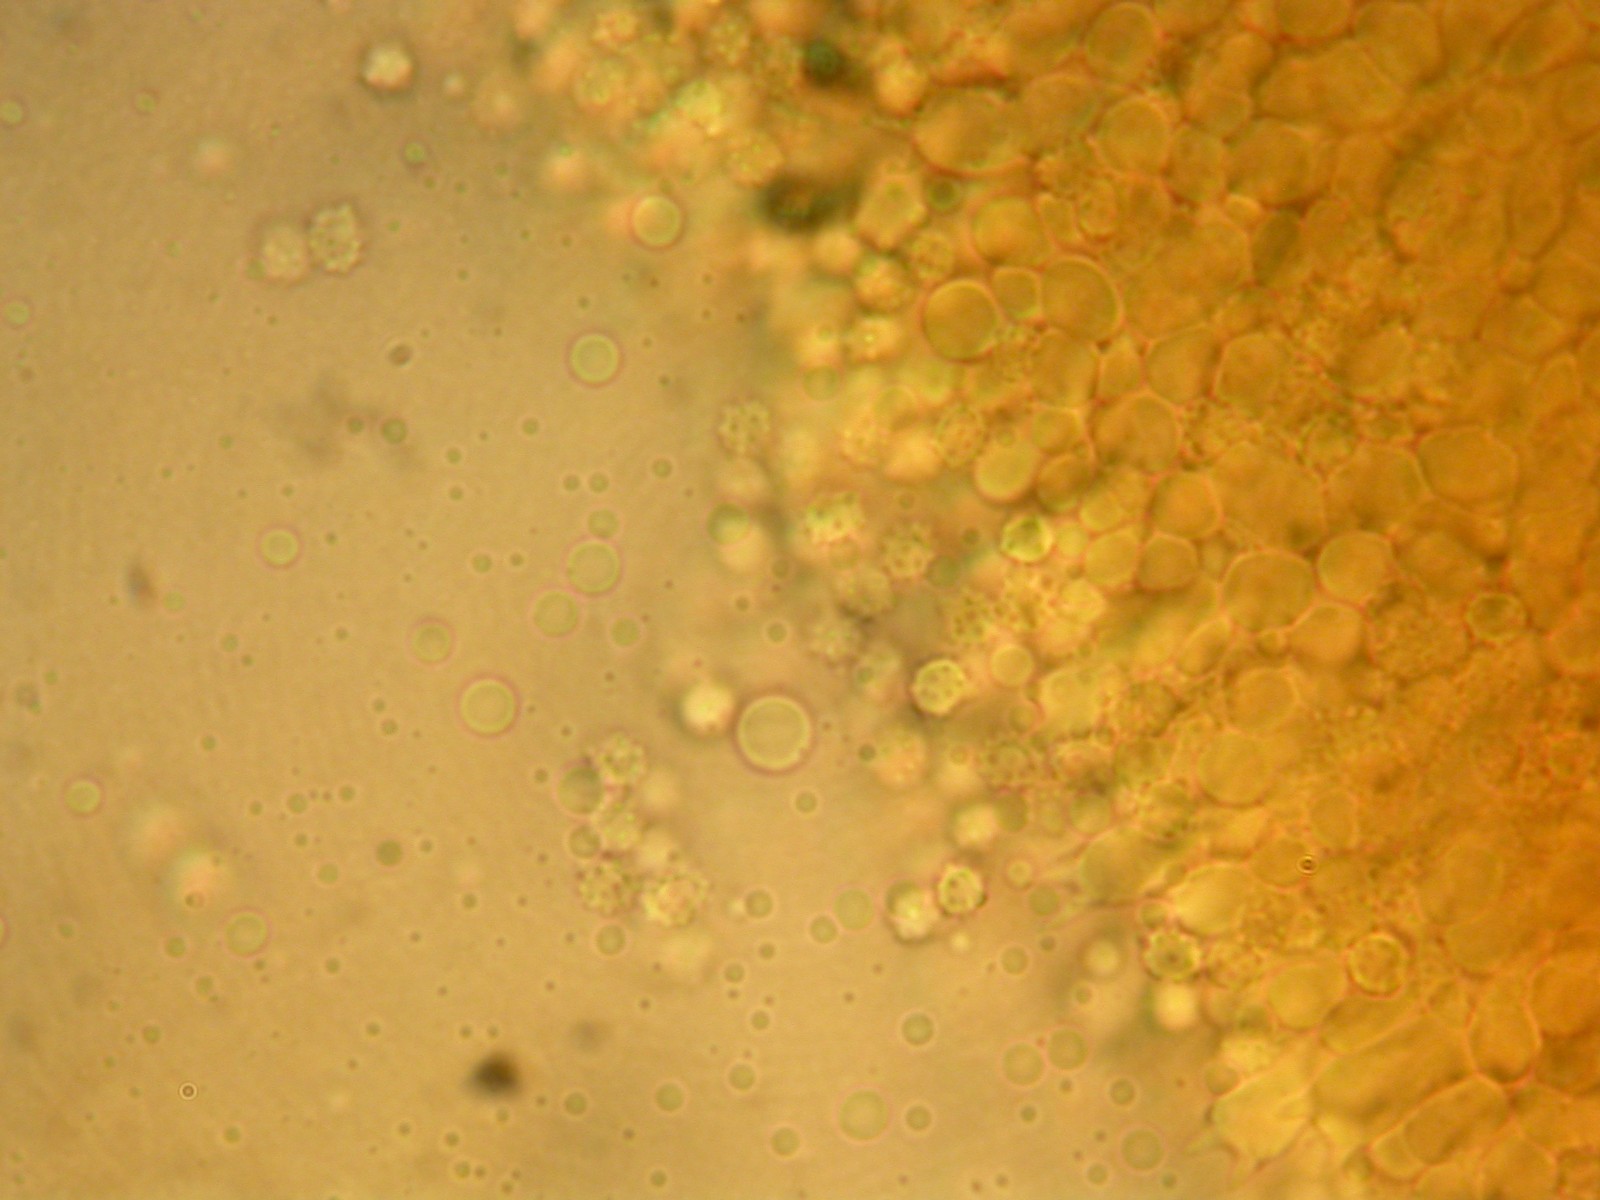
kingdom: Fungi
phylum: Basidiomycota
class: Agaricomycetes
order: Thelephorales
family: Thelephoraceae
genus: Phellodon
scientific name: Phellodon tomentosus
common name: vellugtende duftpigsvamp
